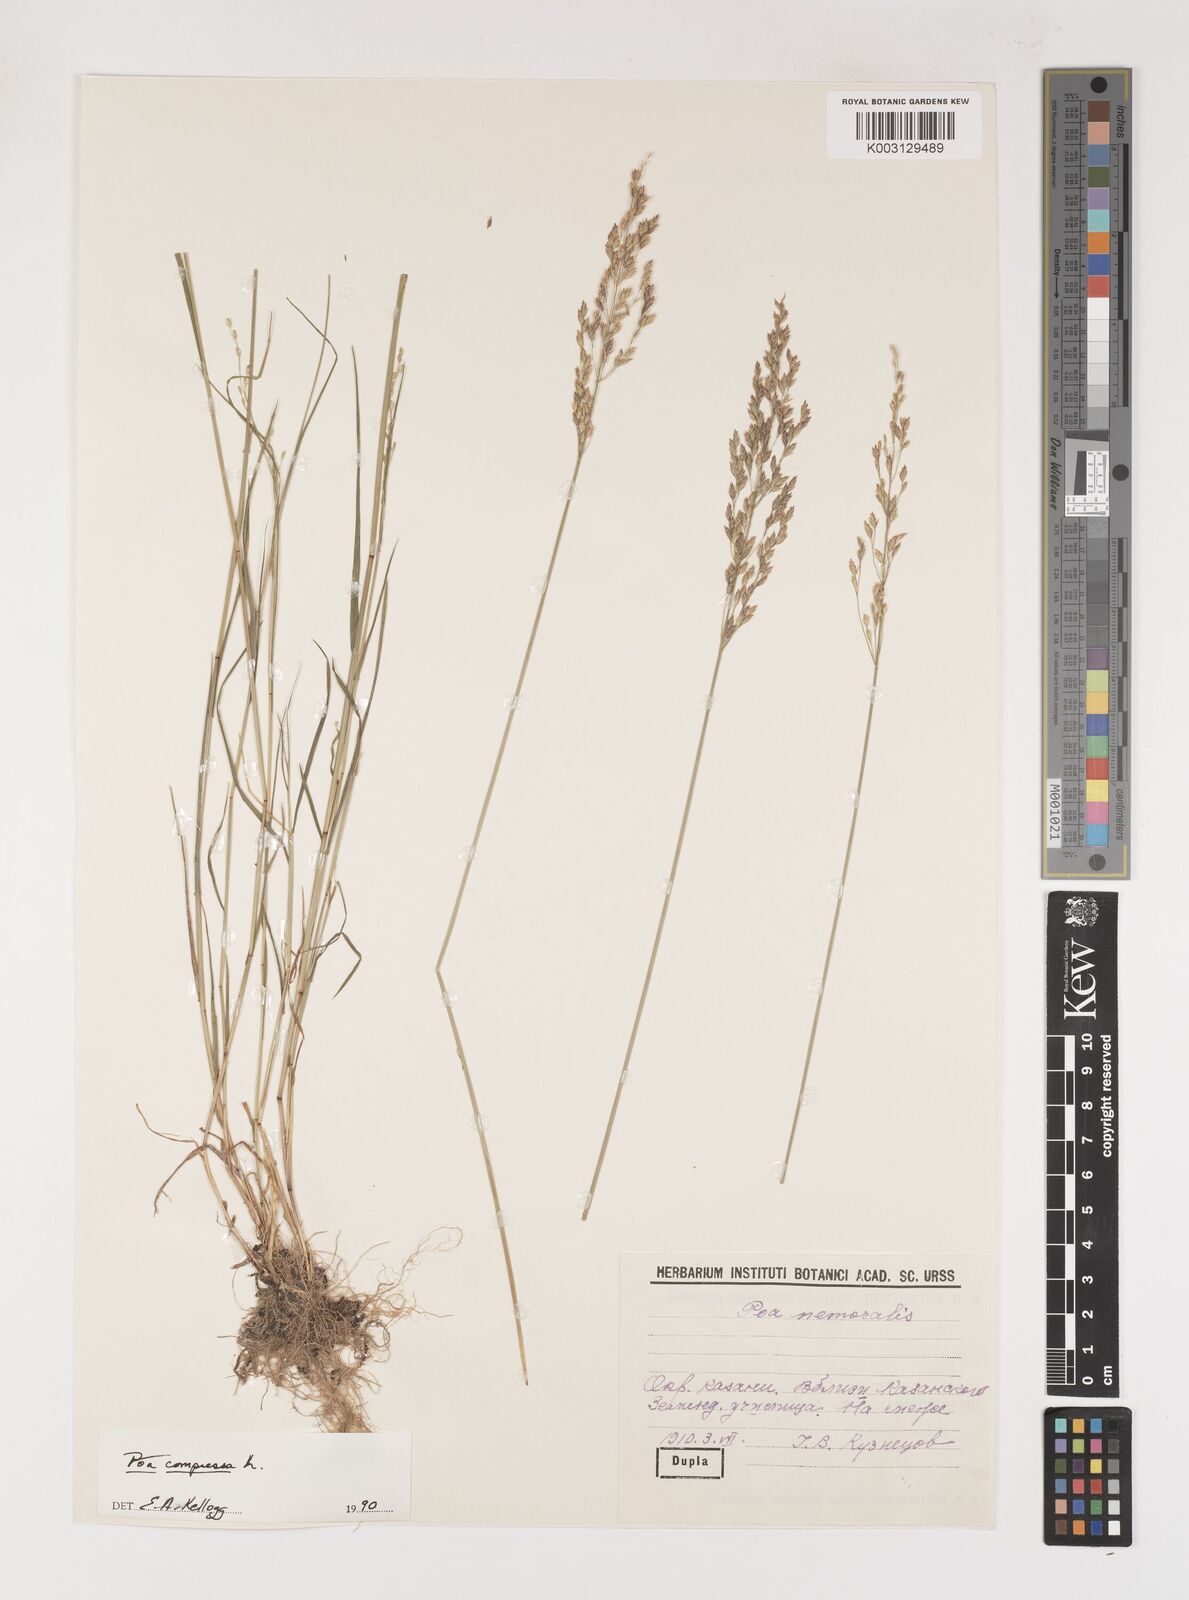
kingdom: Plantae
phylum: Tracheophyta
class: Liliopsida
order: Poales
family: Poaceae
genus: Poa
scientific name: Poa compressa
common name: Canada bluegrass
